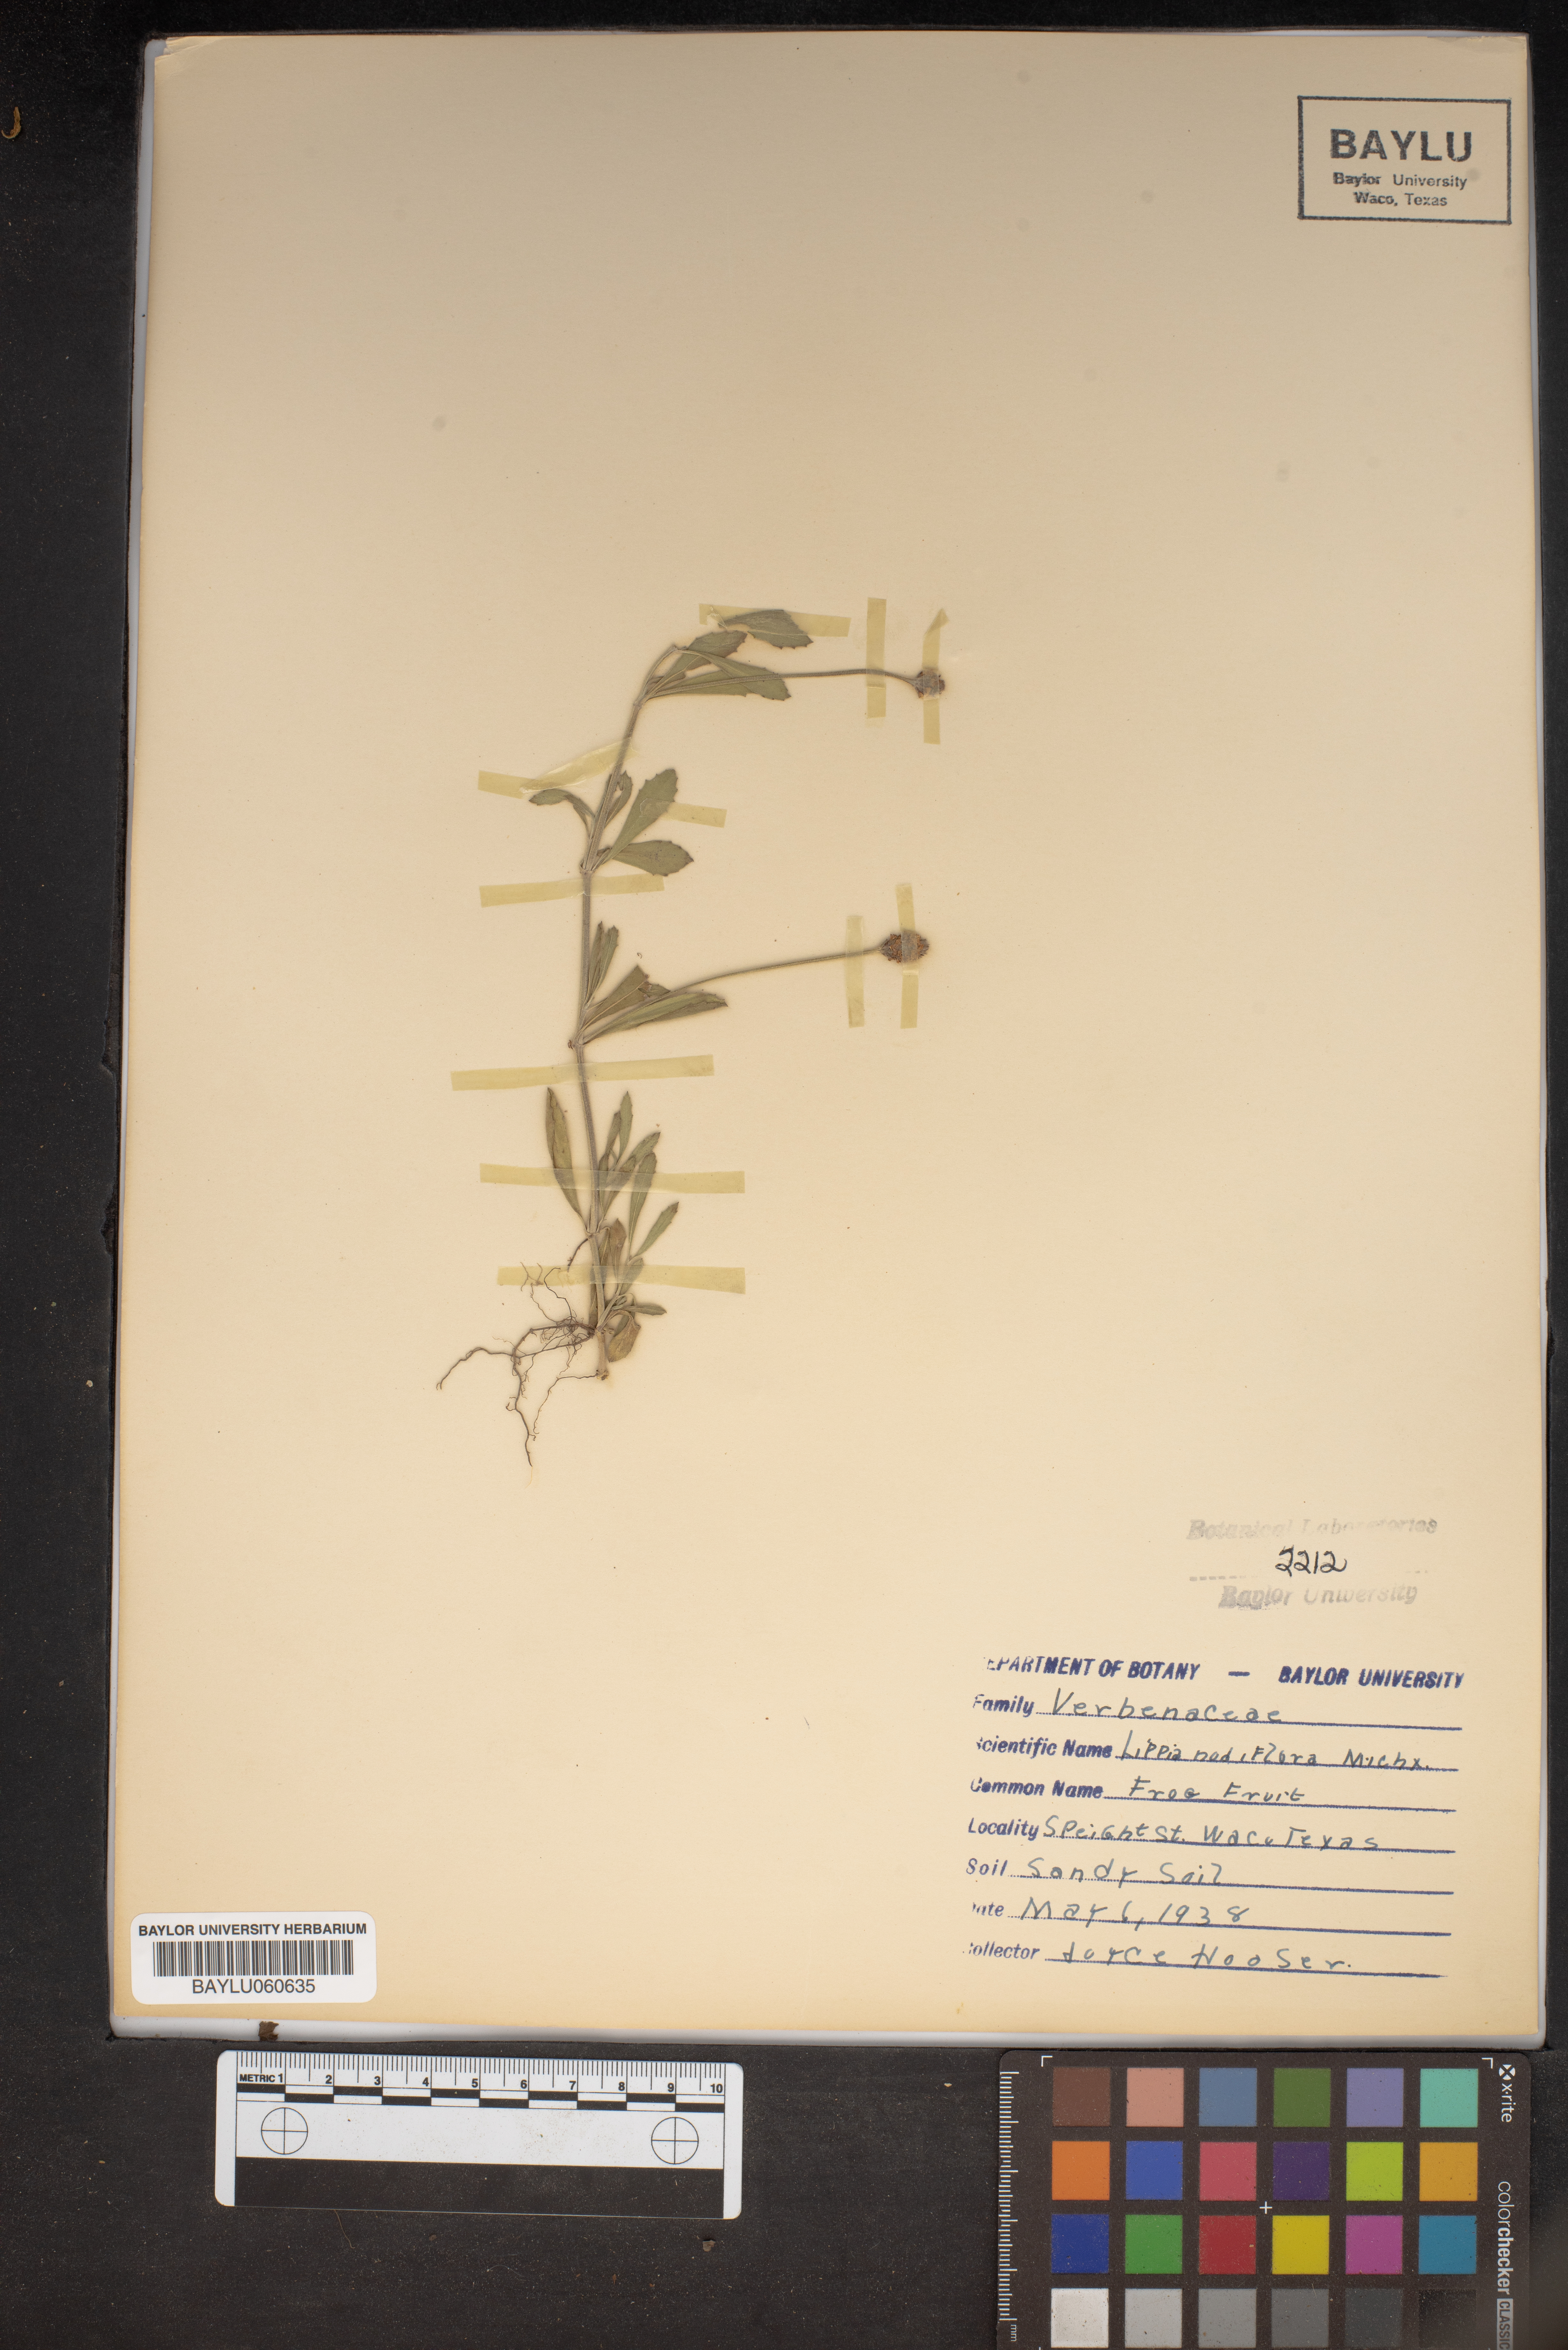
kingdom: Plantae
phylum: Tracheophyta
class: Magnoliopsida
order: Lamiales
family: Verbenaceae
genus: Phyla
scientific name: Phyla nodiflora
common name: Frogfruit
